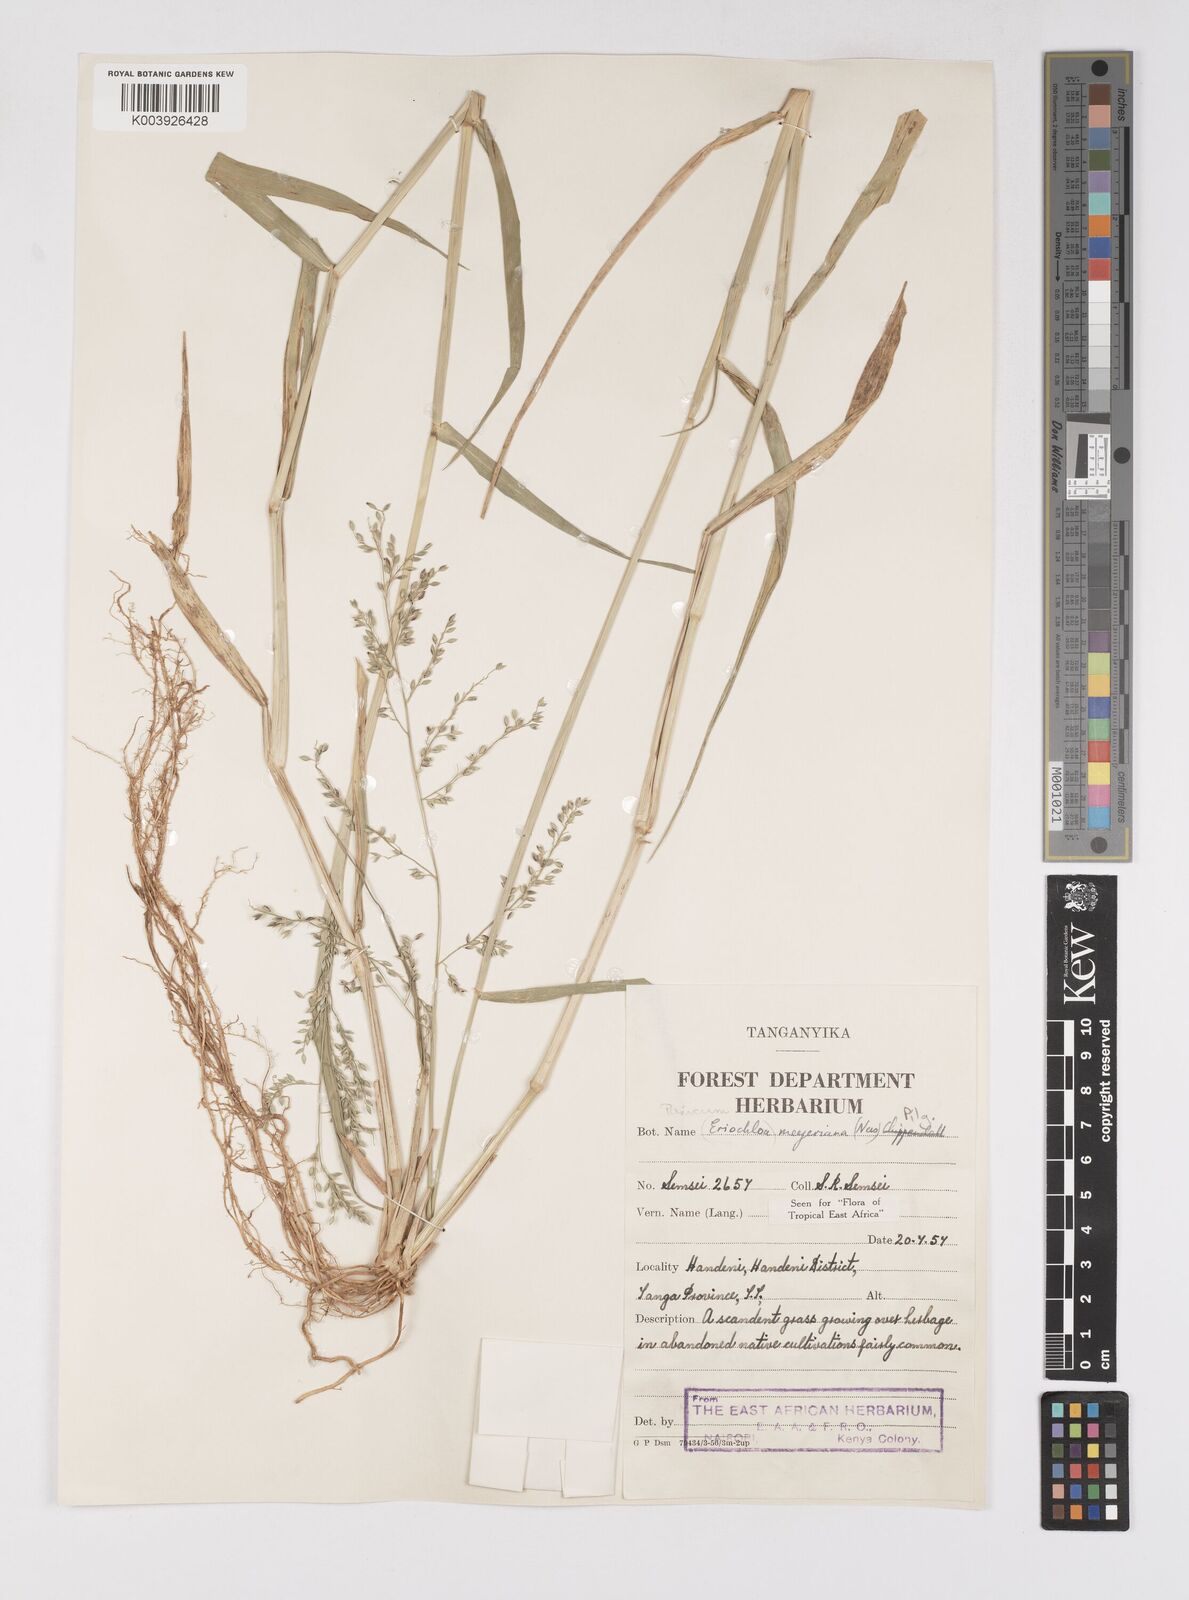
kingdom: Plantae
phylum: Tracheophyta
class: Liliopsida
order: Poales
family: Poaceae
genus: Eriochloa
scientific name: Eriochloa meyeriana
